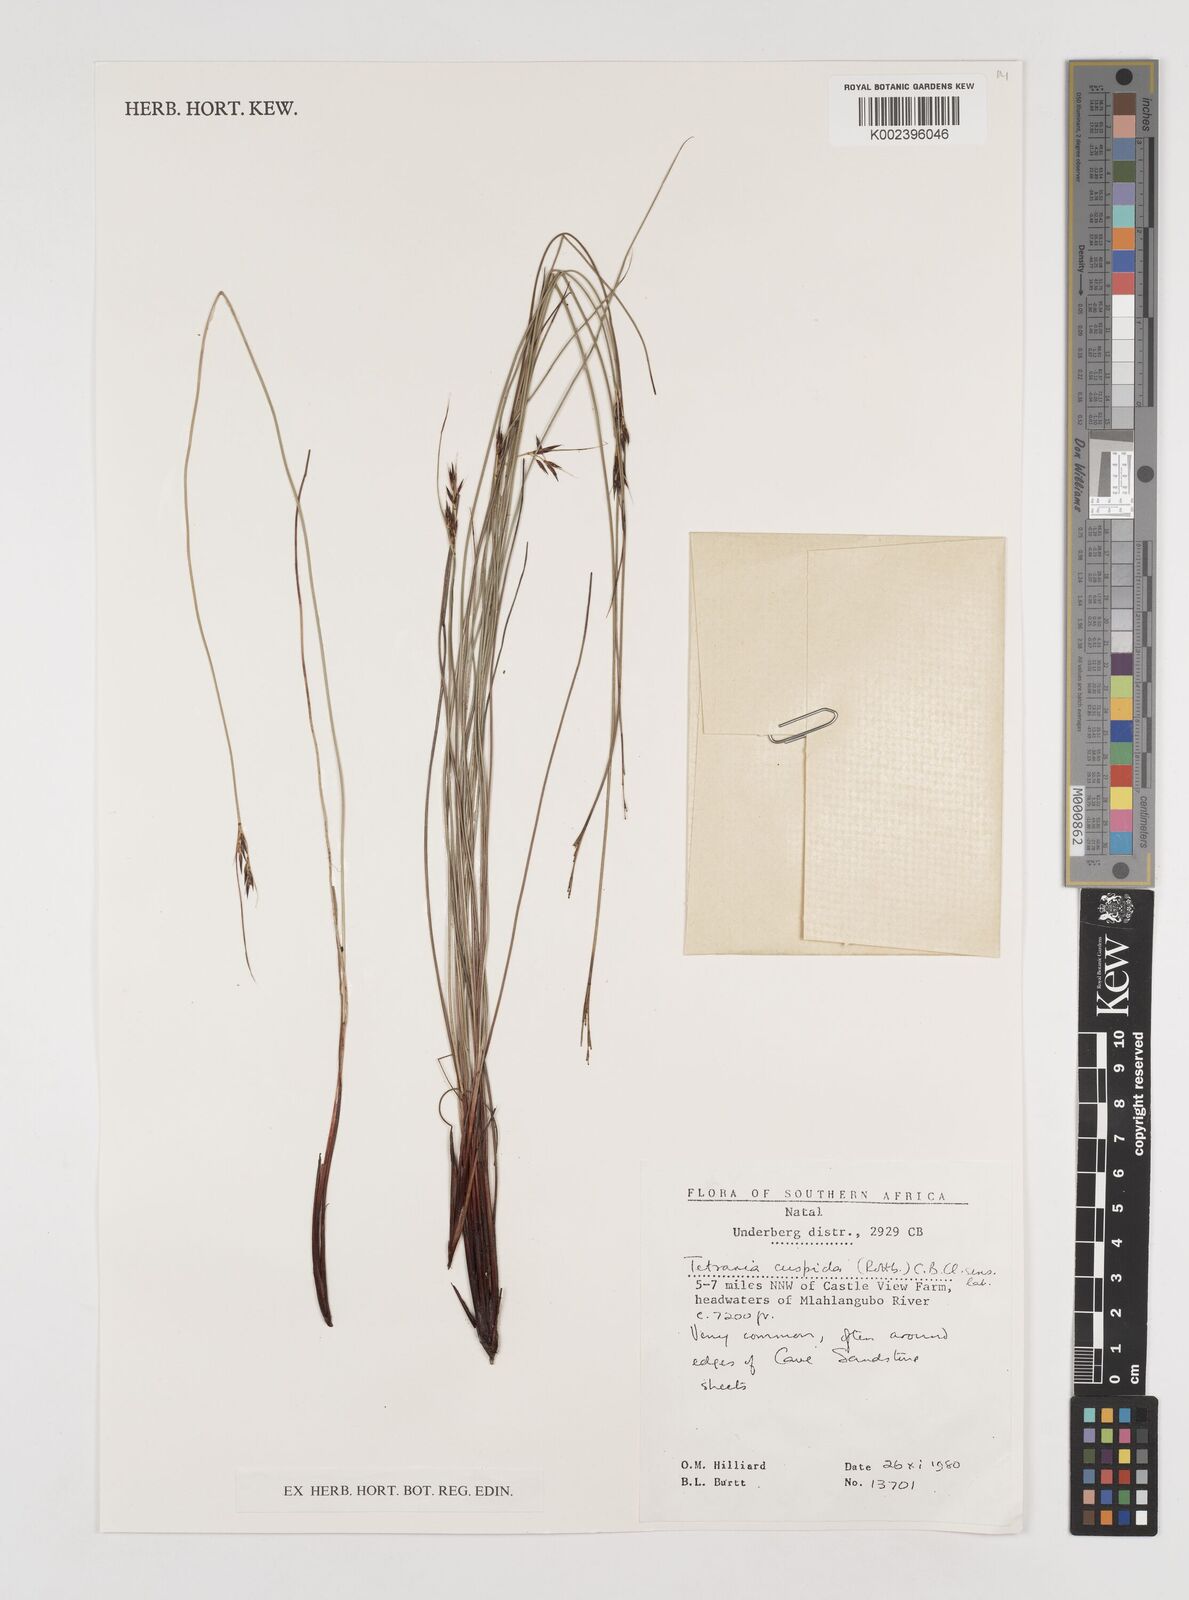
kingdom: Plantae
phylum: Tracheophyta
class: Liliopsida
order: Poales
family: Cyperaceae
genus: Schoenus
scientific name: Schoenus cuspidatus
